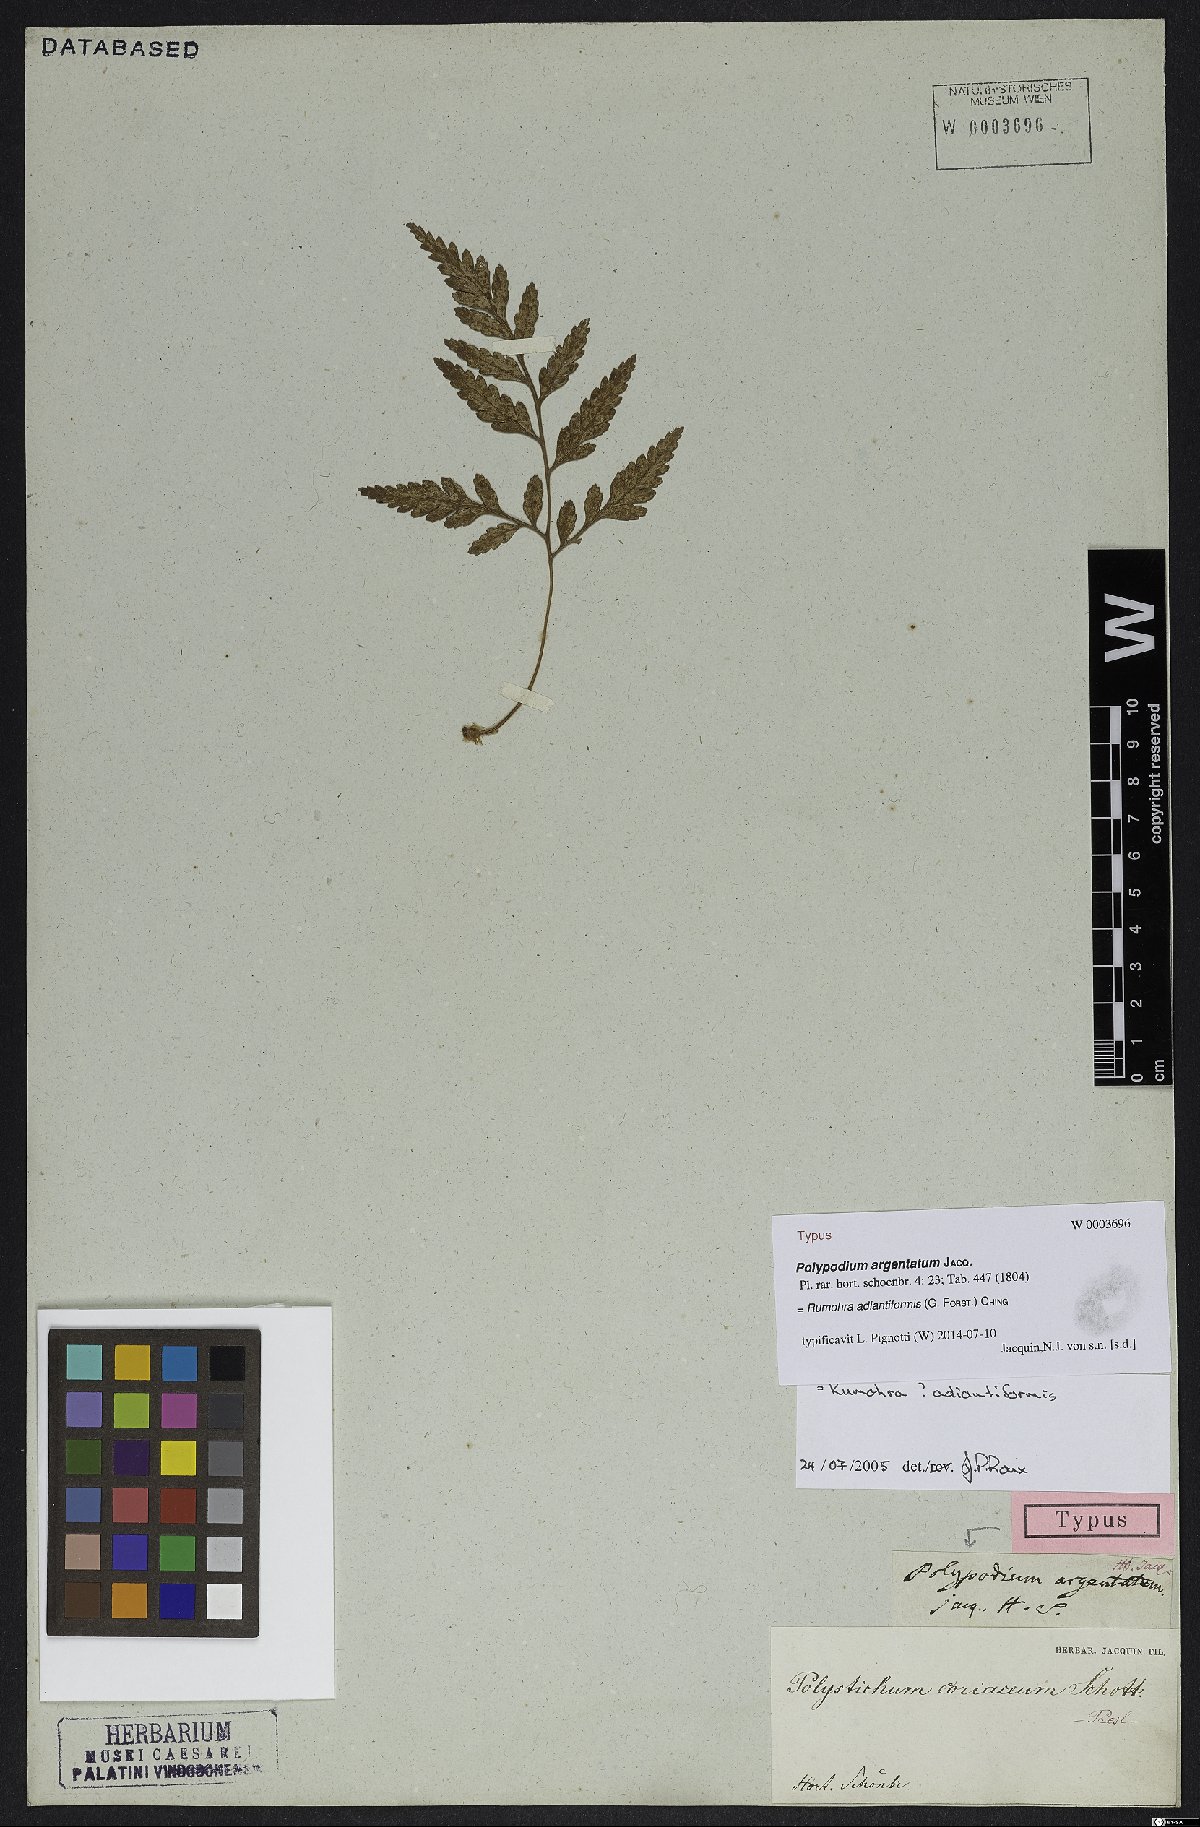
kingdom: Plantae
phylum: Tracheophyta
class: Polypodiopsida
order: Polypodiales
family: Dryopteridaceae
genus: Rumohra
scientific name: Rumohra adiantiformis
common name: Leather fern
